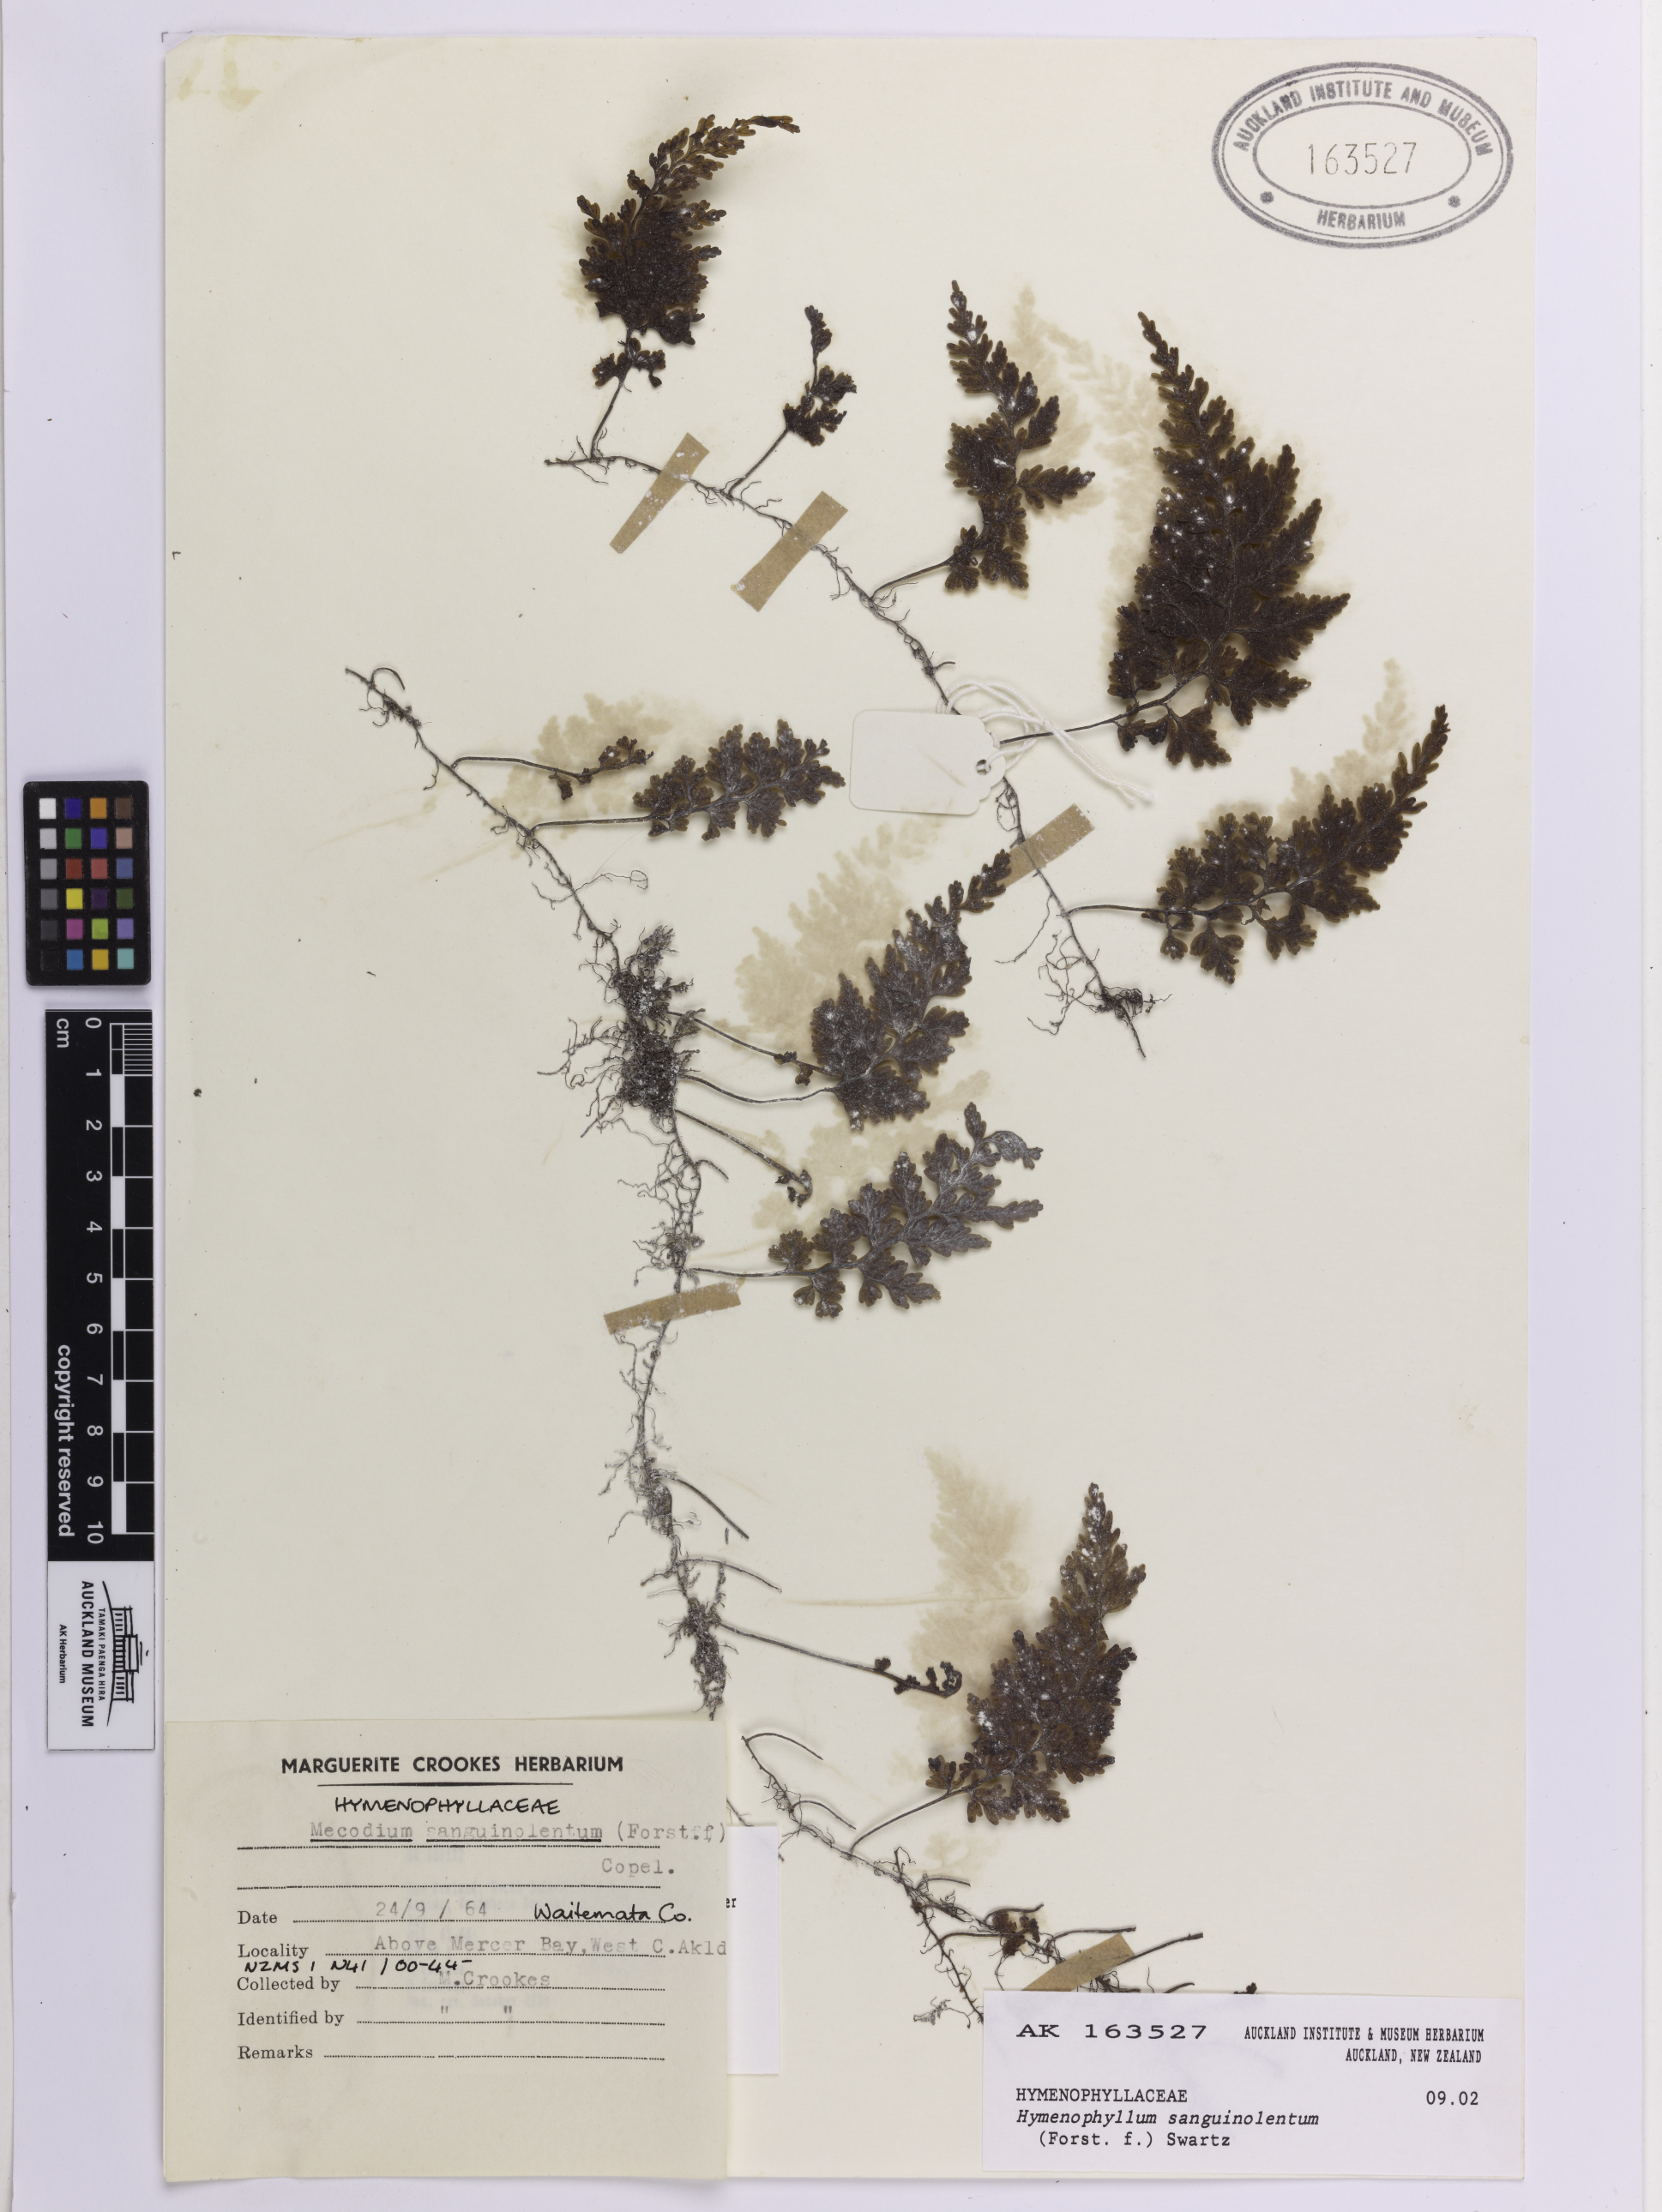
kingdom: Plantae
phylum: Tracheophyta
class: Polypodiopsida
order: Hymenophyllales
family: Hymenophyllaceae
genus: Hymenophyllum
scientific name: Hymenophyllum sanguinolentum
